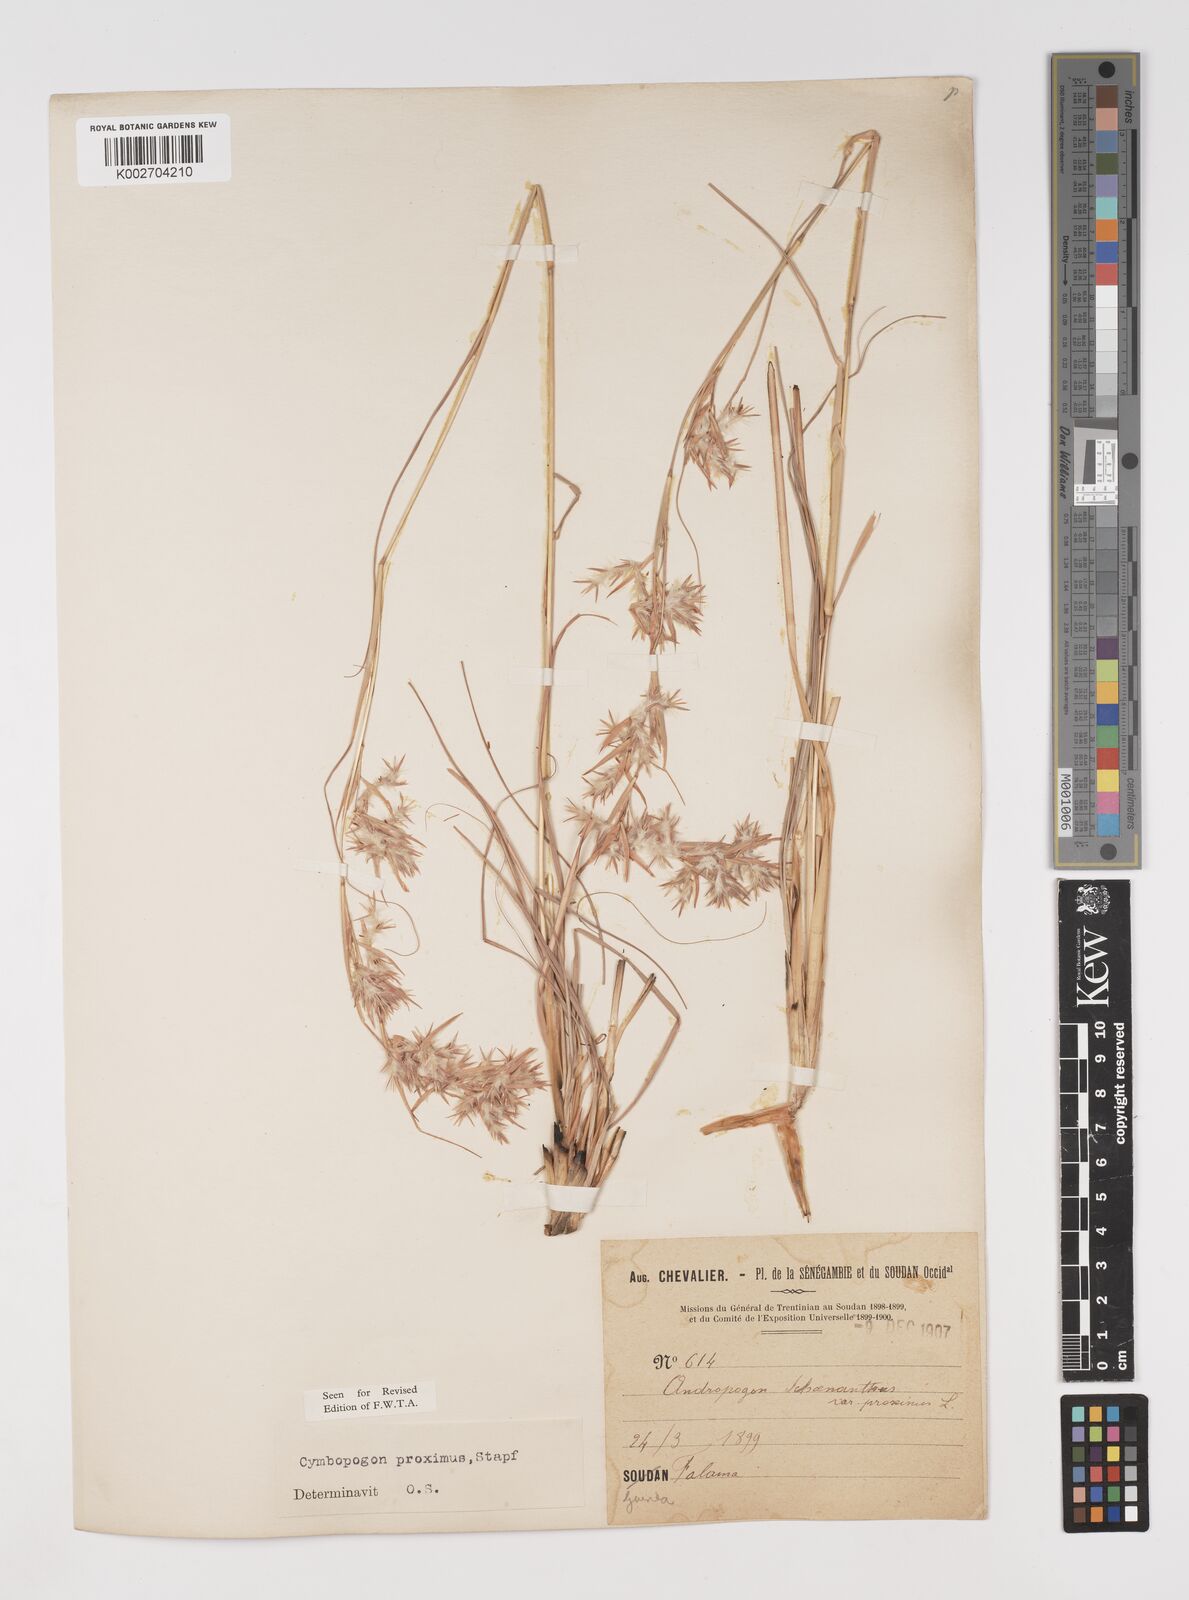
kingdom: Plantae
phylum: Tracheophyta
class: Liliopsida
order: Poales
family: Poaceae
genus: Cymbopogon
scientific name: Cymbopogon schoenanthus
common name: Geranium grass
